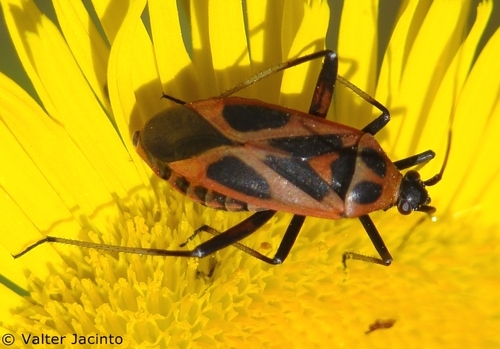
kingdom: Animalia
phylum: Arthropoda
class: Insecta
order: Hemiptera
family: Miridae
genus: Calocoris
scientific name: Calocoris nemoralis
